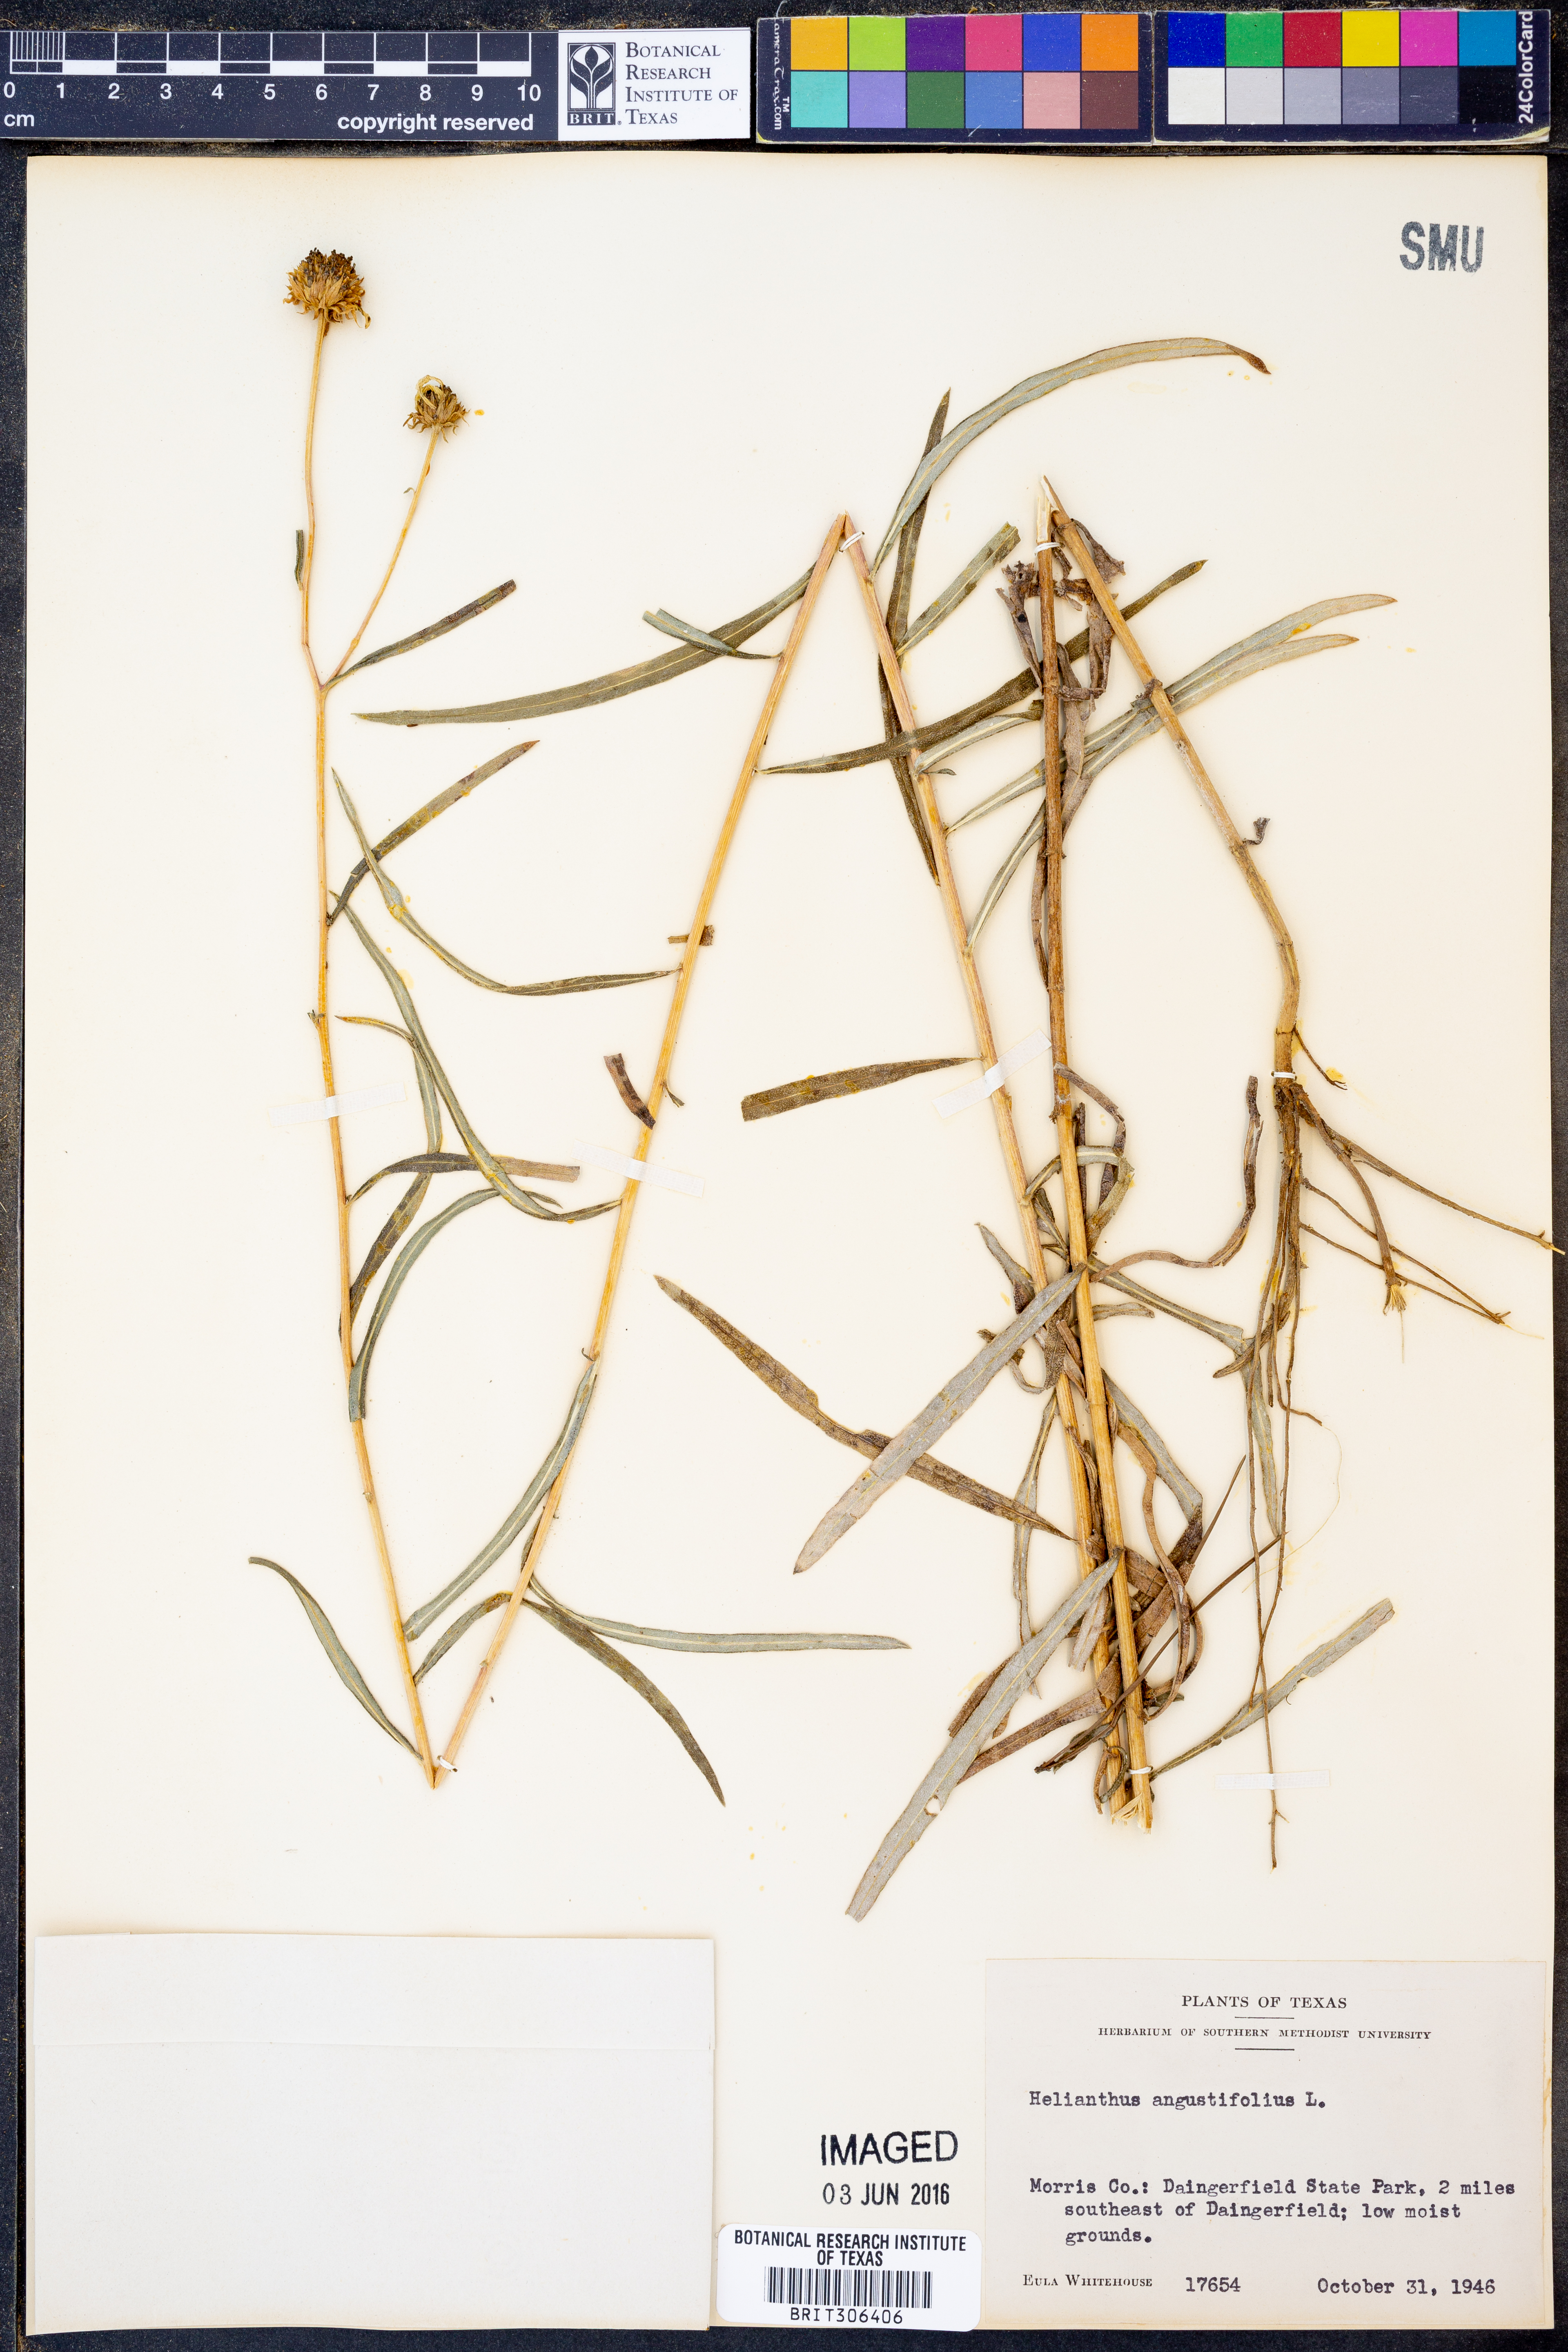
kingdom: Plantae
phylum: Tracheophyta
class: Magnoliopsida
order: Asterales
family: Asteraceae
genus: Helianthus
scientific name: Helianthus angustifolius
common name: Swamp sunflower
